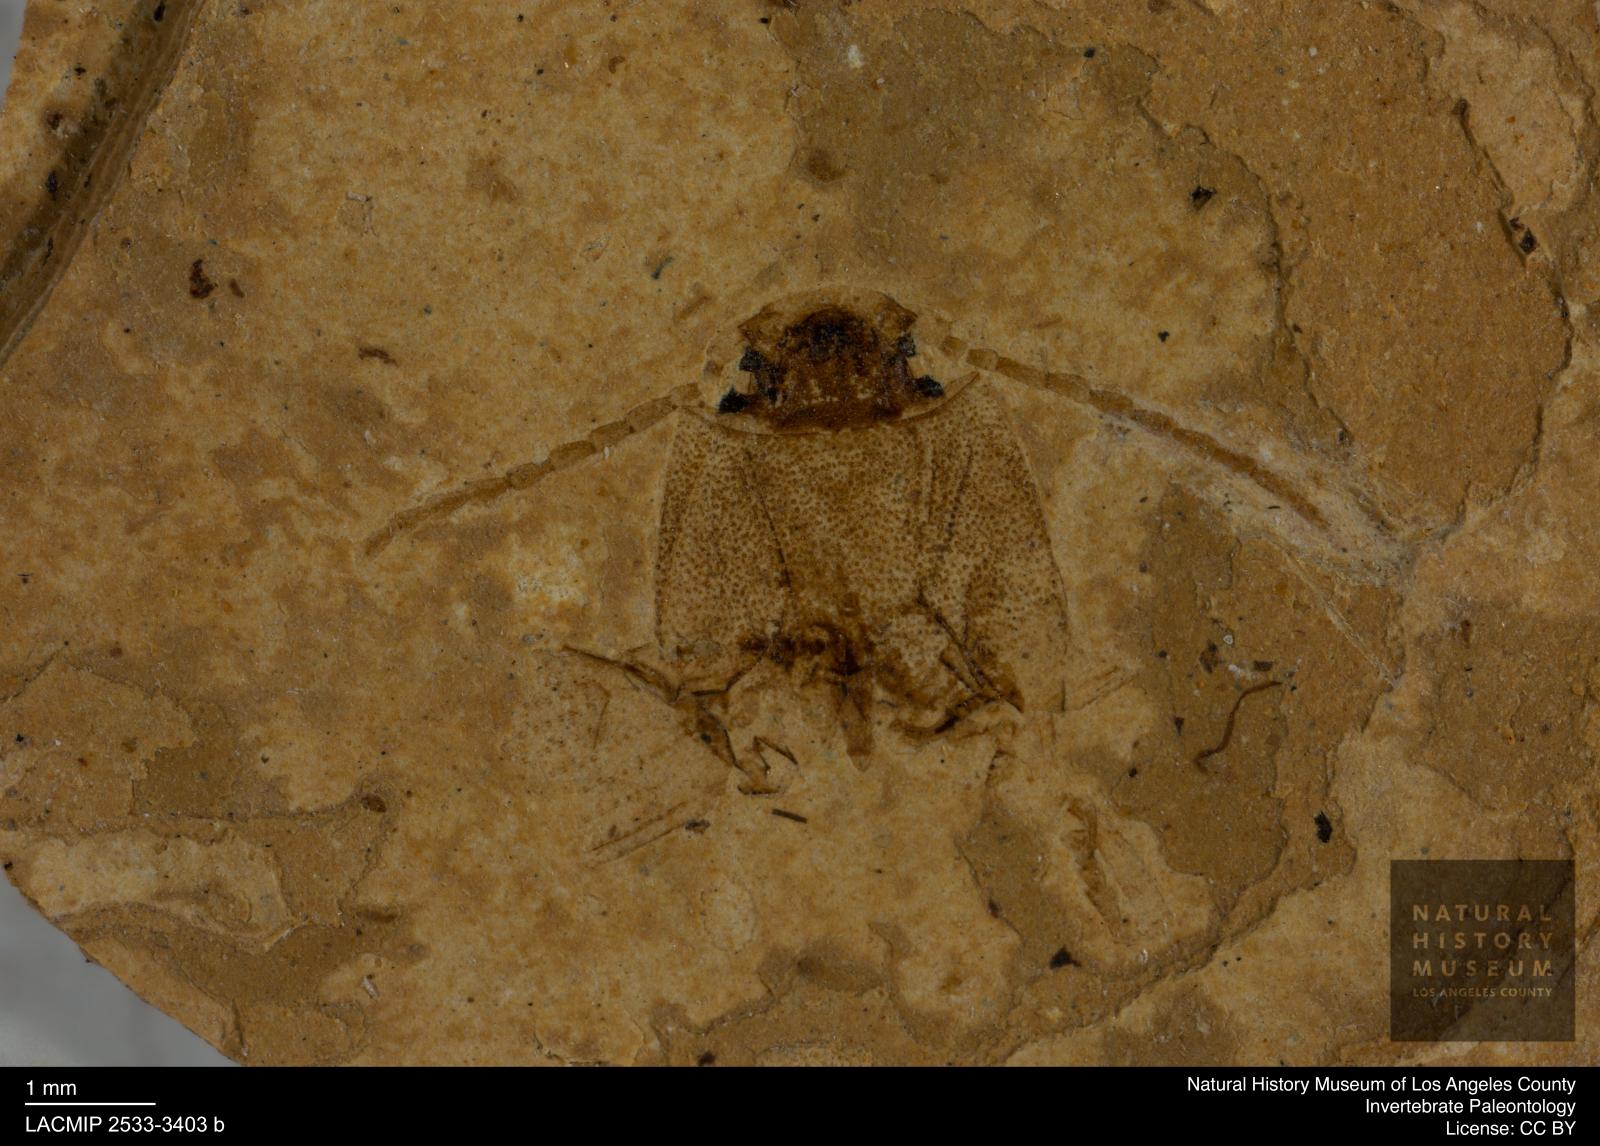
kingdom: Animalia
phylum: Arthropoda
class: Insecta
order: Coleoptera
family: Elateridae
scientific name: Elateridae
